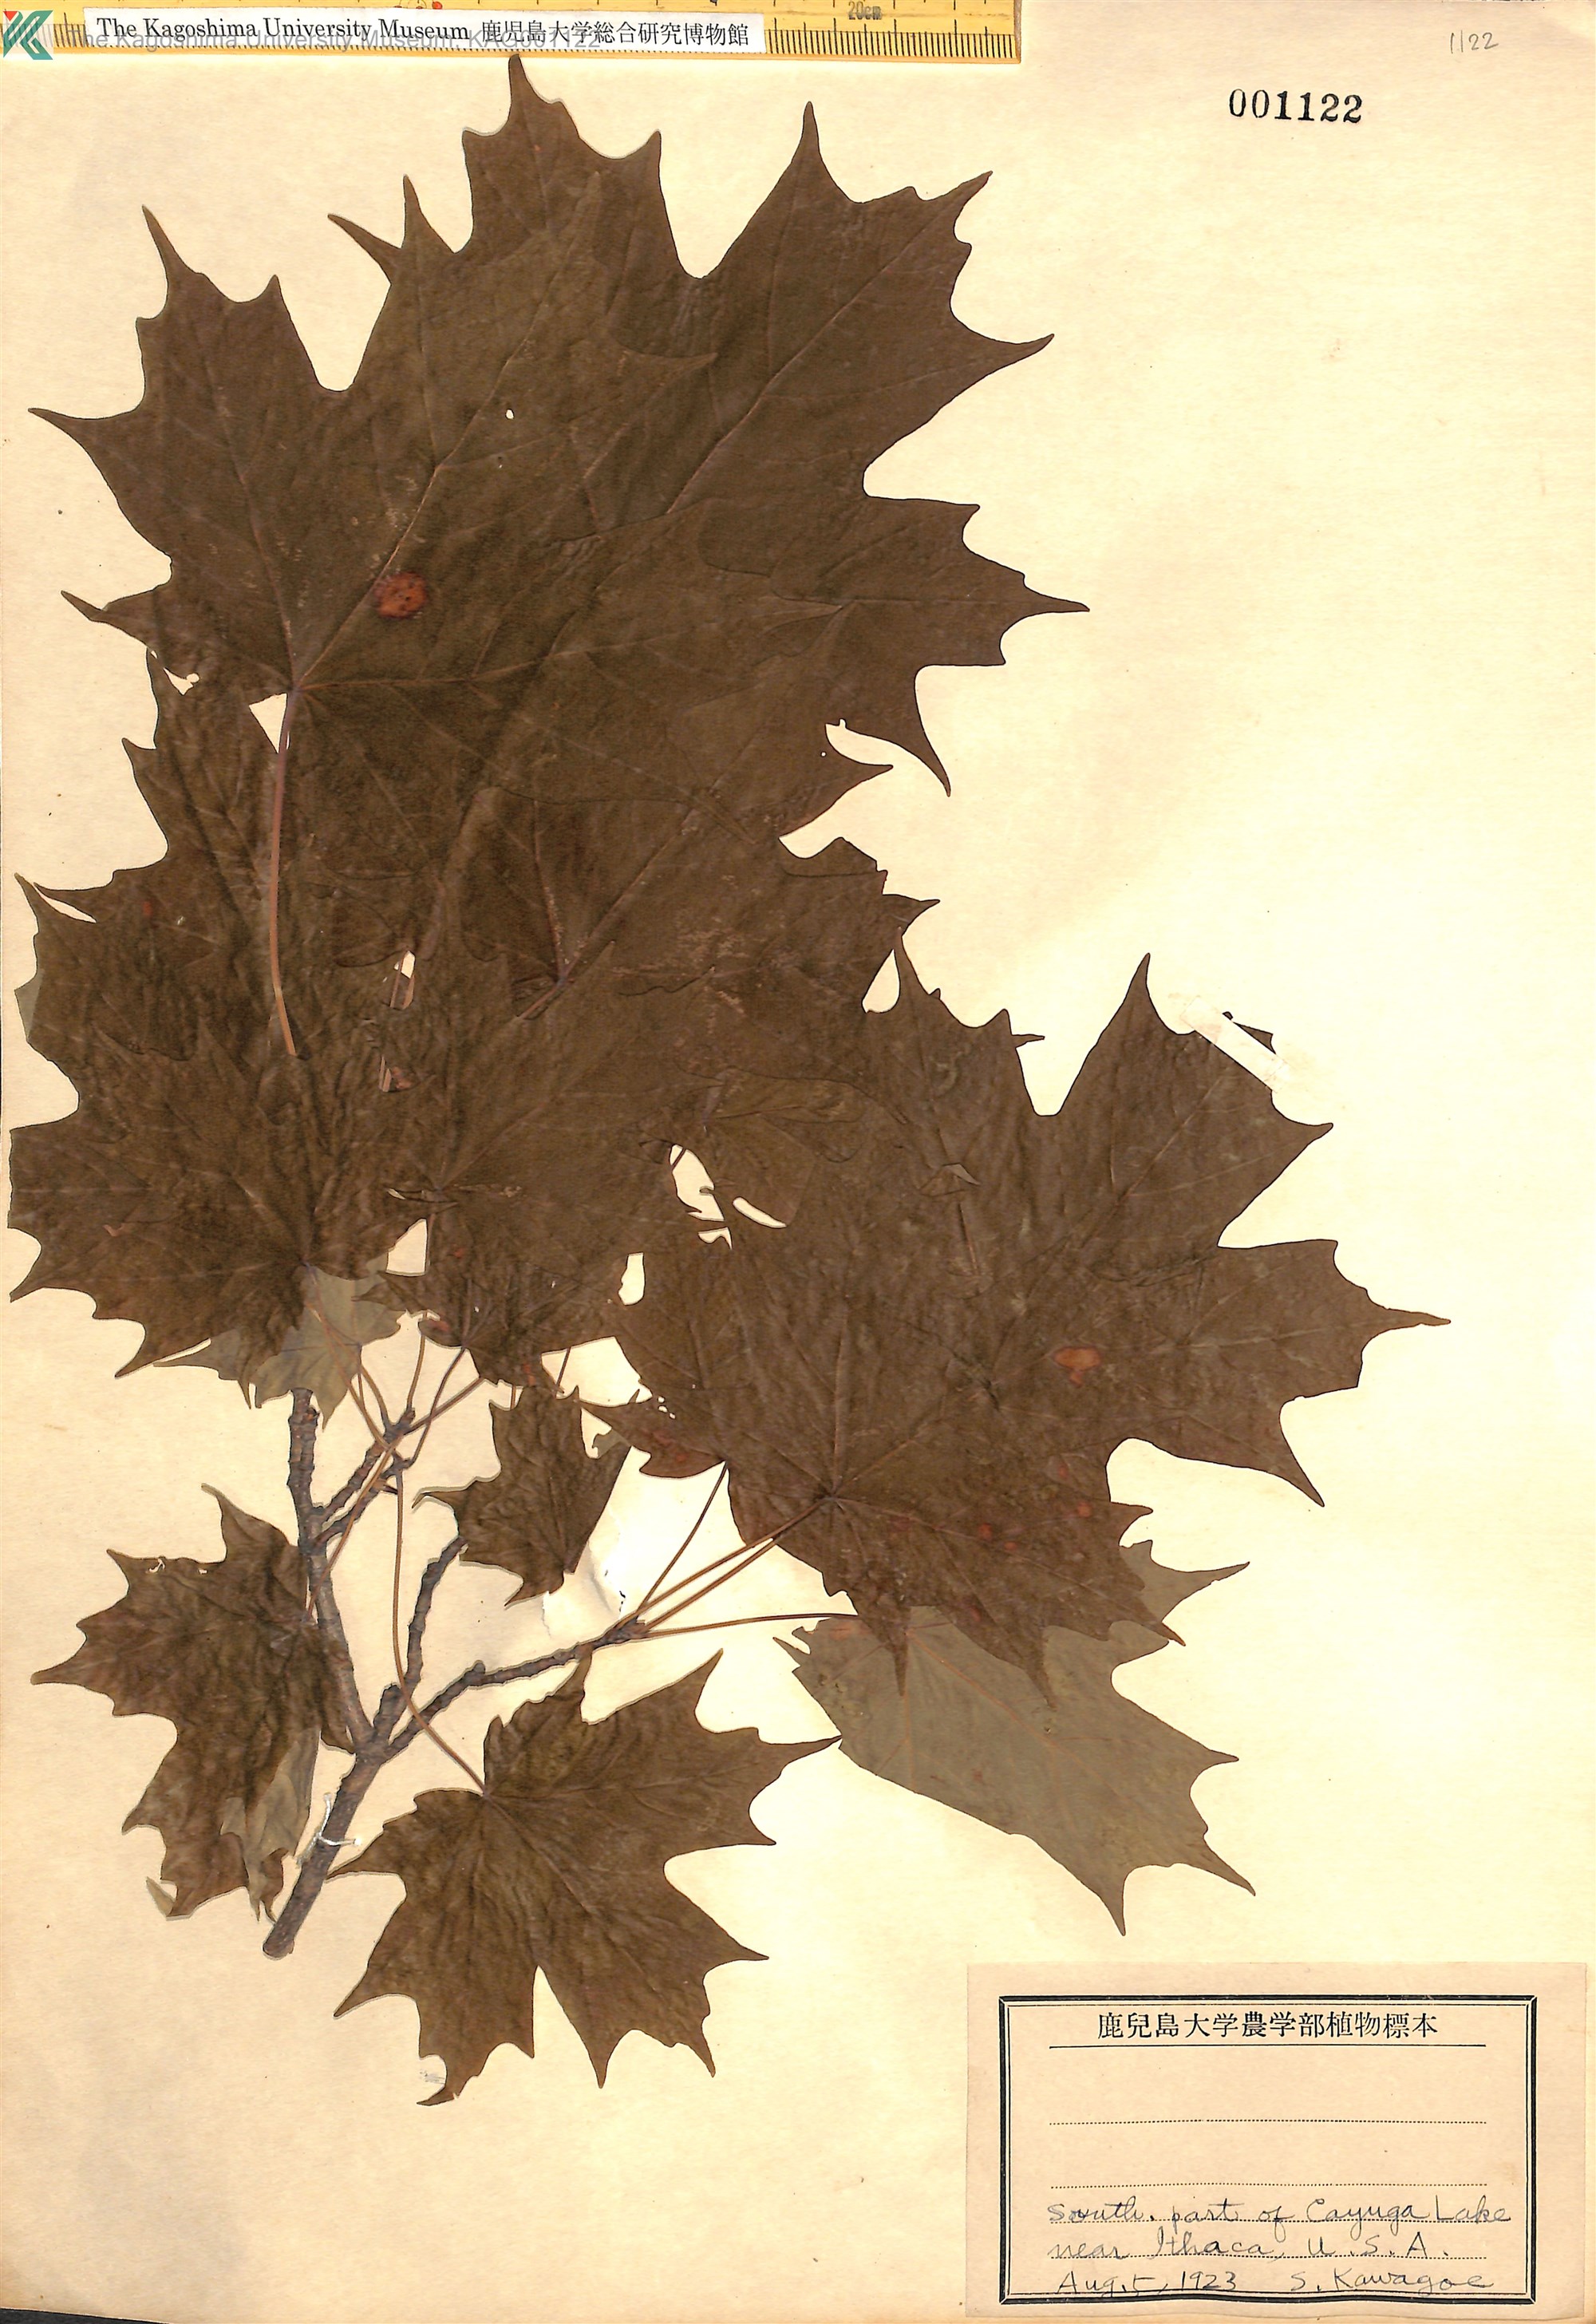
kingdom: Plantae
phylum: Tracheophyta
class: Magnoliopsida
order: Sapindales
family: Sapindaceae
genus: Acer
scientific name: Acer
